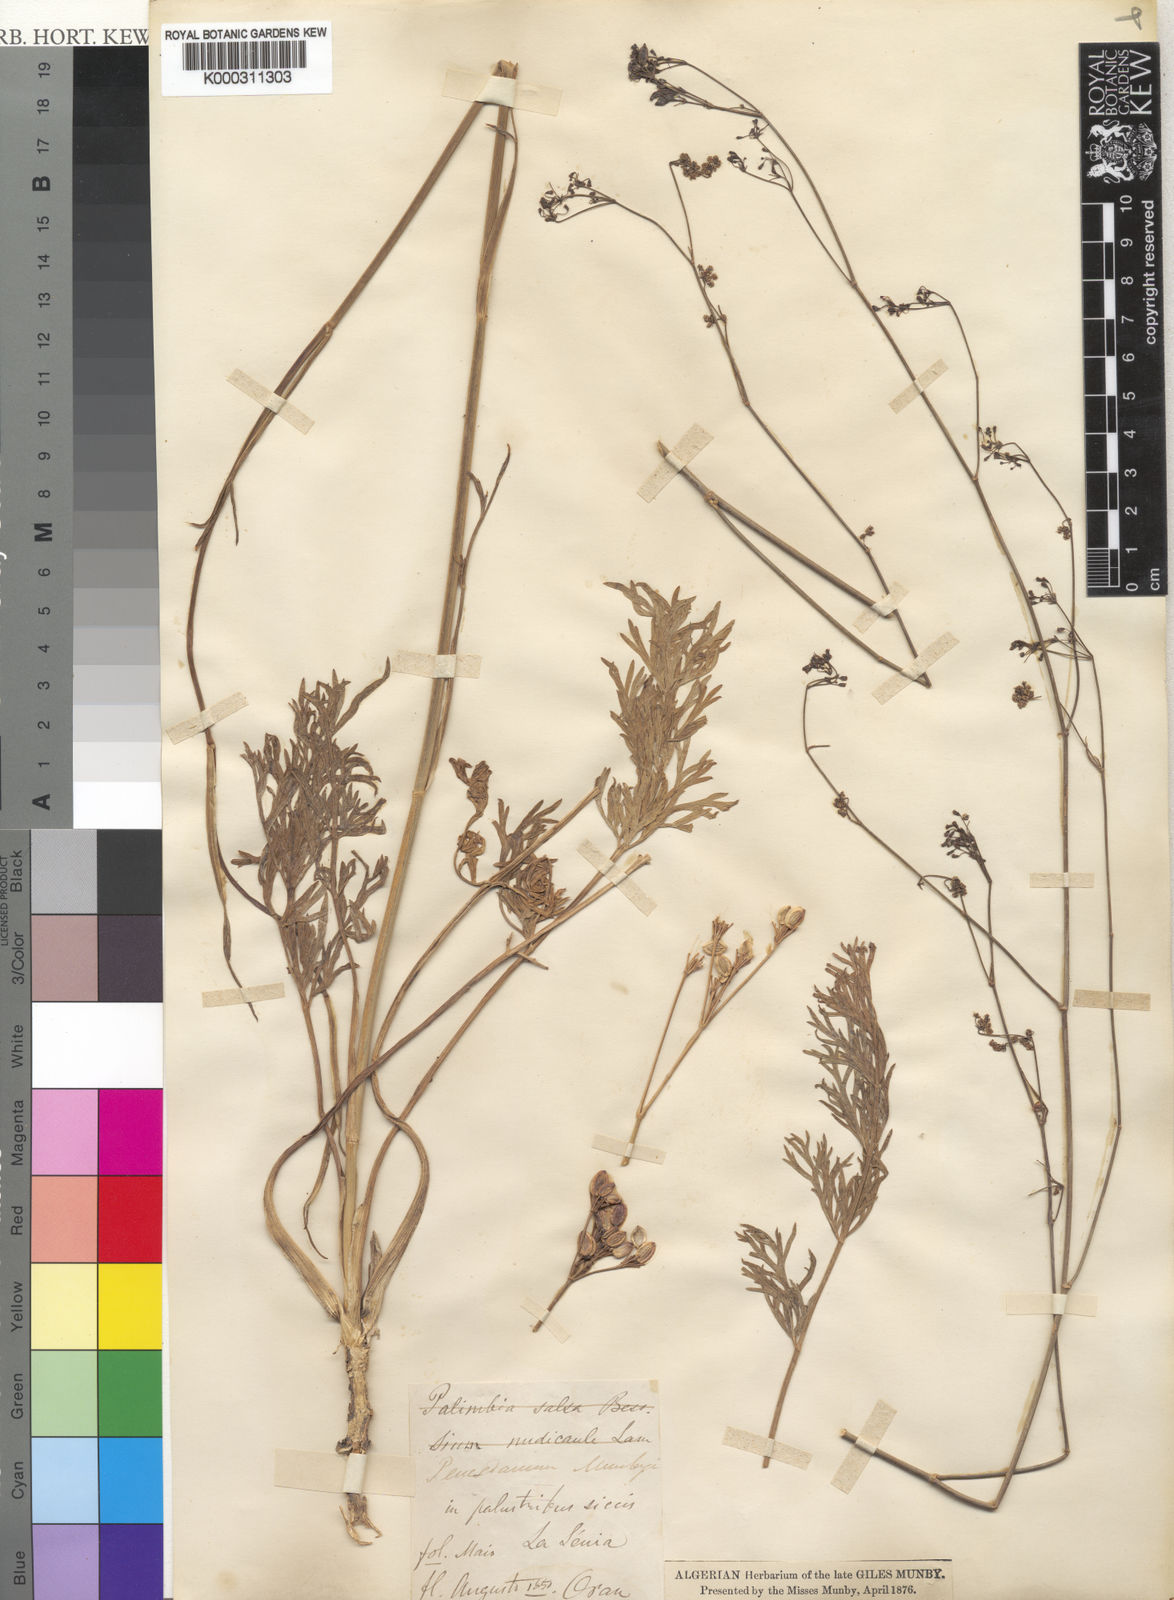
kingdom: Plantae
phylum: Tracheophyta
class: Magnoliopsida
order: Apiales
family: Apiaceae
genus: Dichoropetalum
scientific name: Dichoropetalum munbyi
